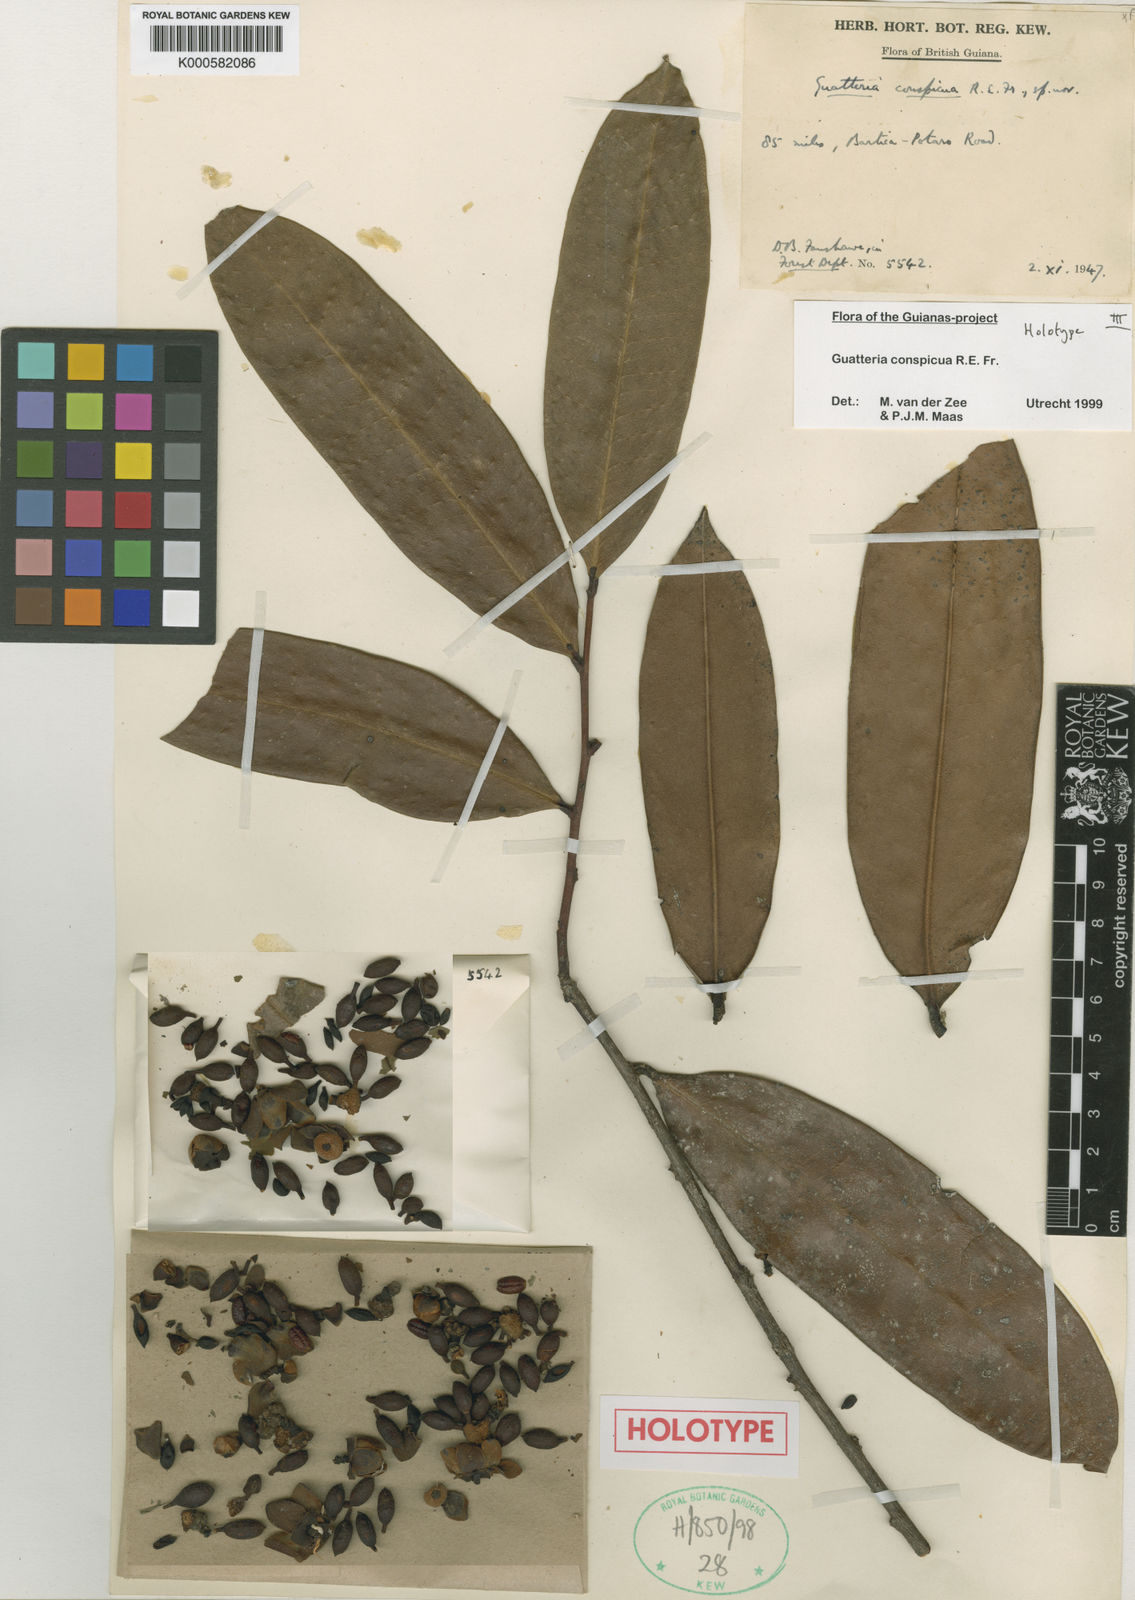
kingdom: Plantae
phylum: Tracheophyta
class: Magnoliopsida
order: Magnoliales
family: Annonaceae
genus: Guatteria
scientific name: Guatteria conspicua
